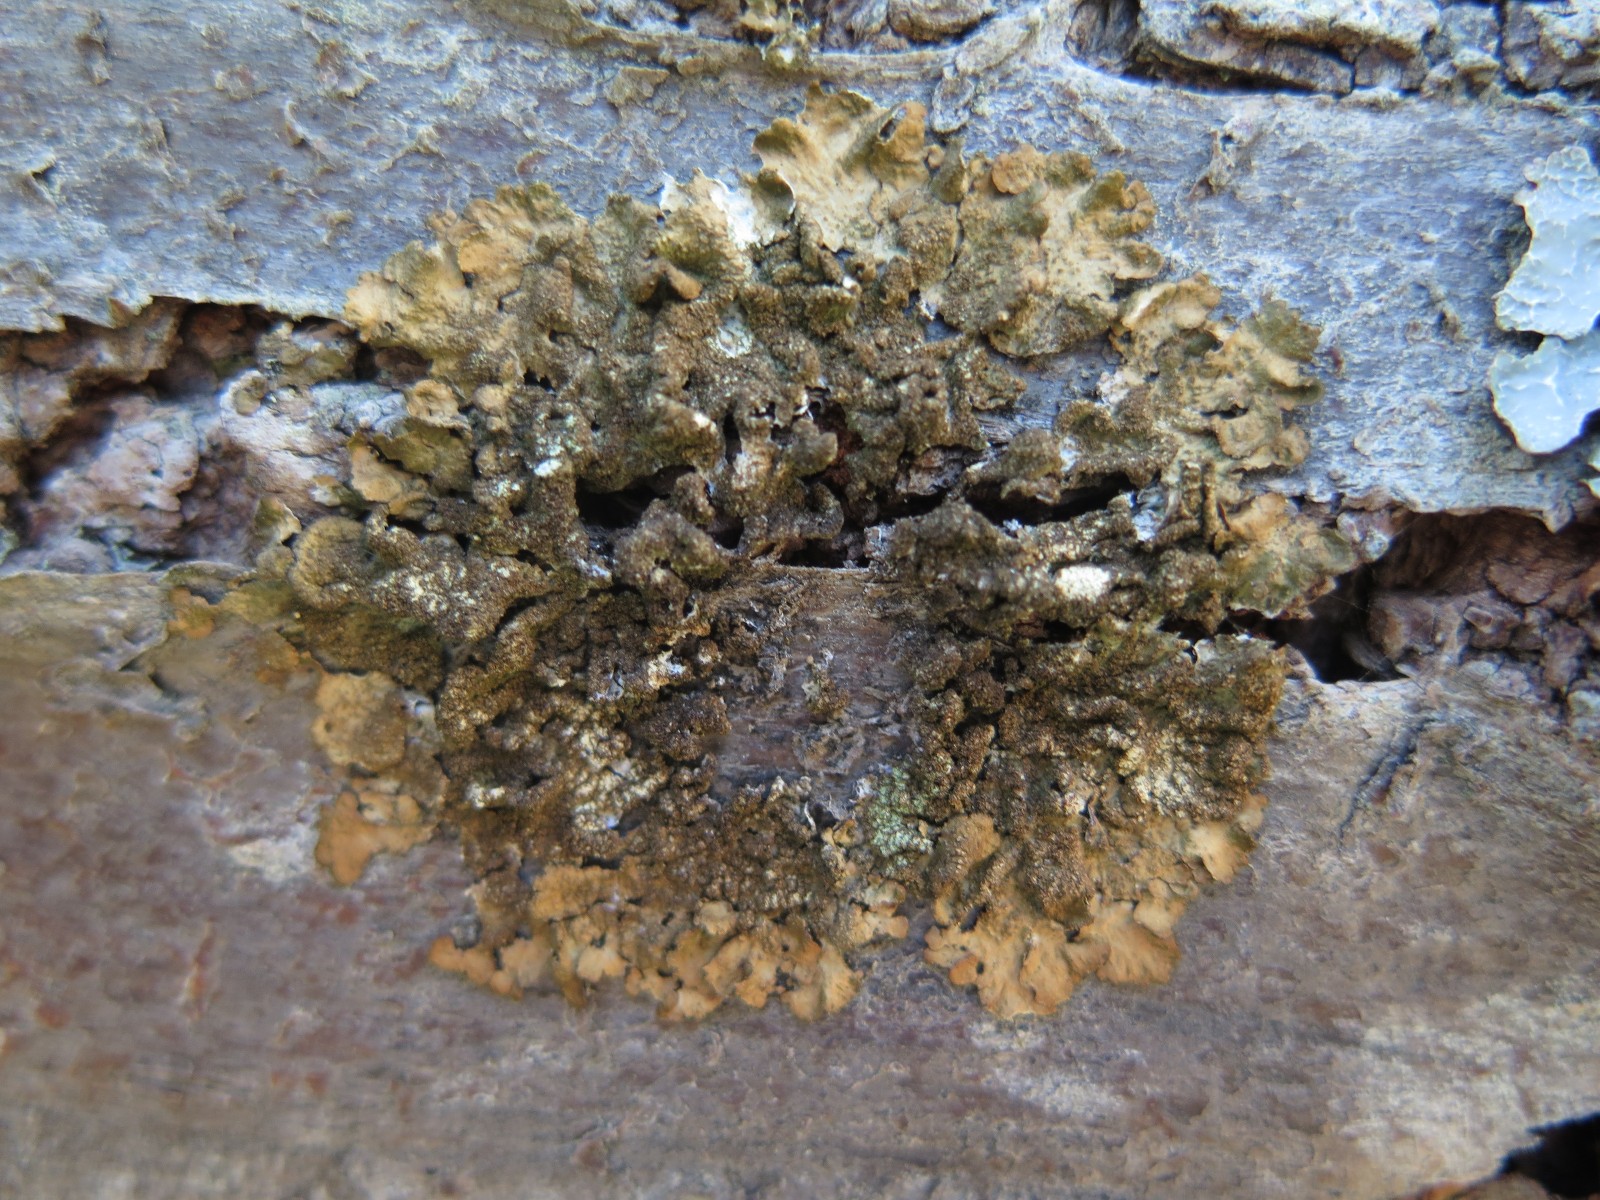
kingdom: Fungi
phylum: Ascomycota
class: Lecanoromycetes
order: Lecanorales
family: Parmeliaceae
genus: Melanelixia
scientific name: Melanelixia subaurifera
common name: guldpudret skållav
